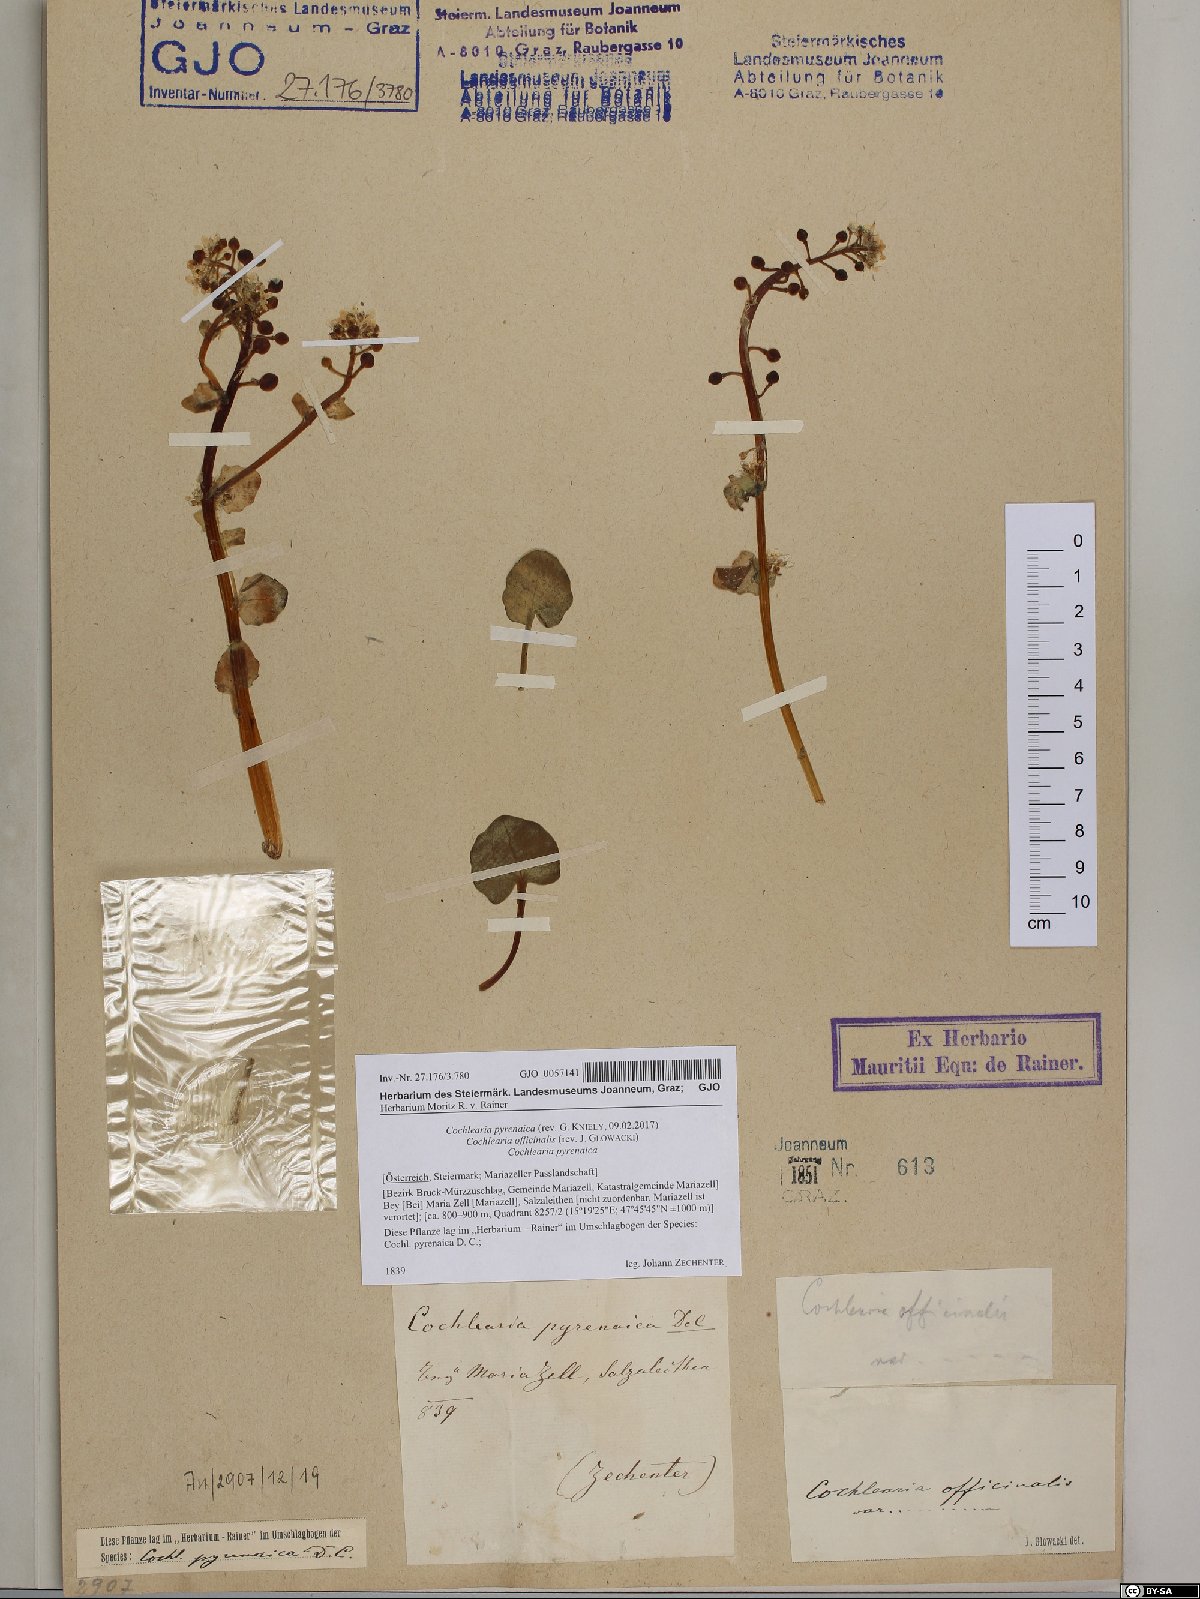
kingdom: Plantae
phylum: Tracheophyta
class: Magnoliopsida
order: Brassicales
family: Brassicaceae
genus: Cochlearia
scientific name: Cochlearia pyrenaica
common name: Upland scurvy-grass
